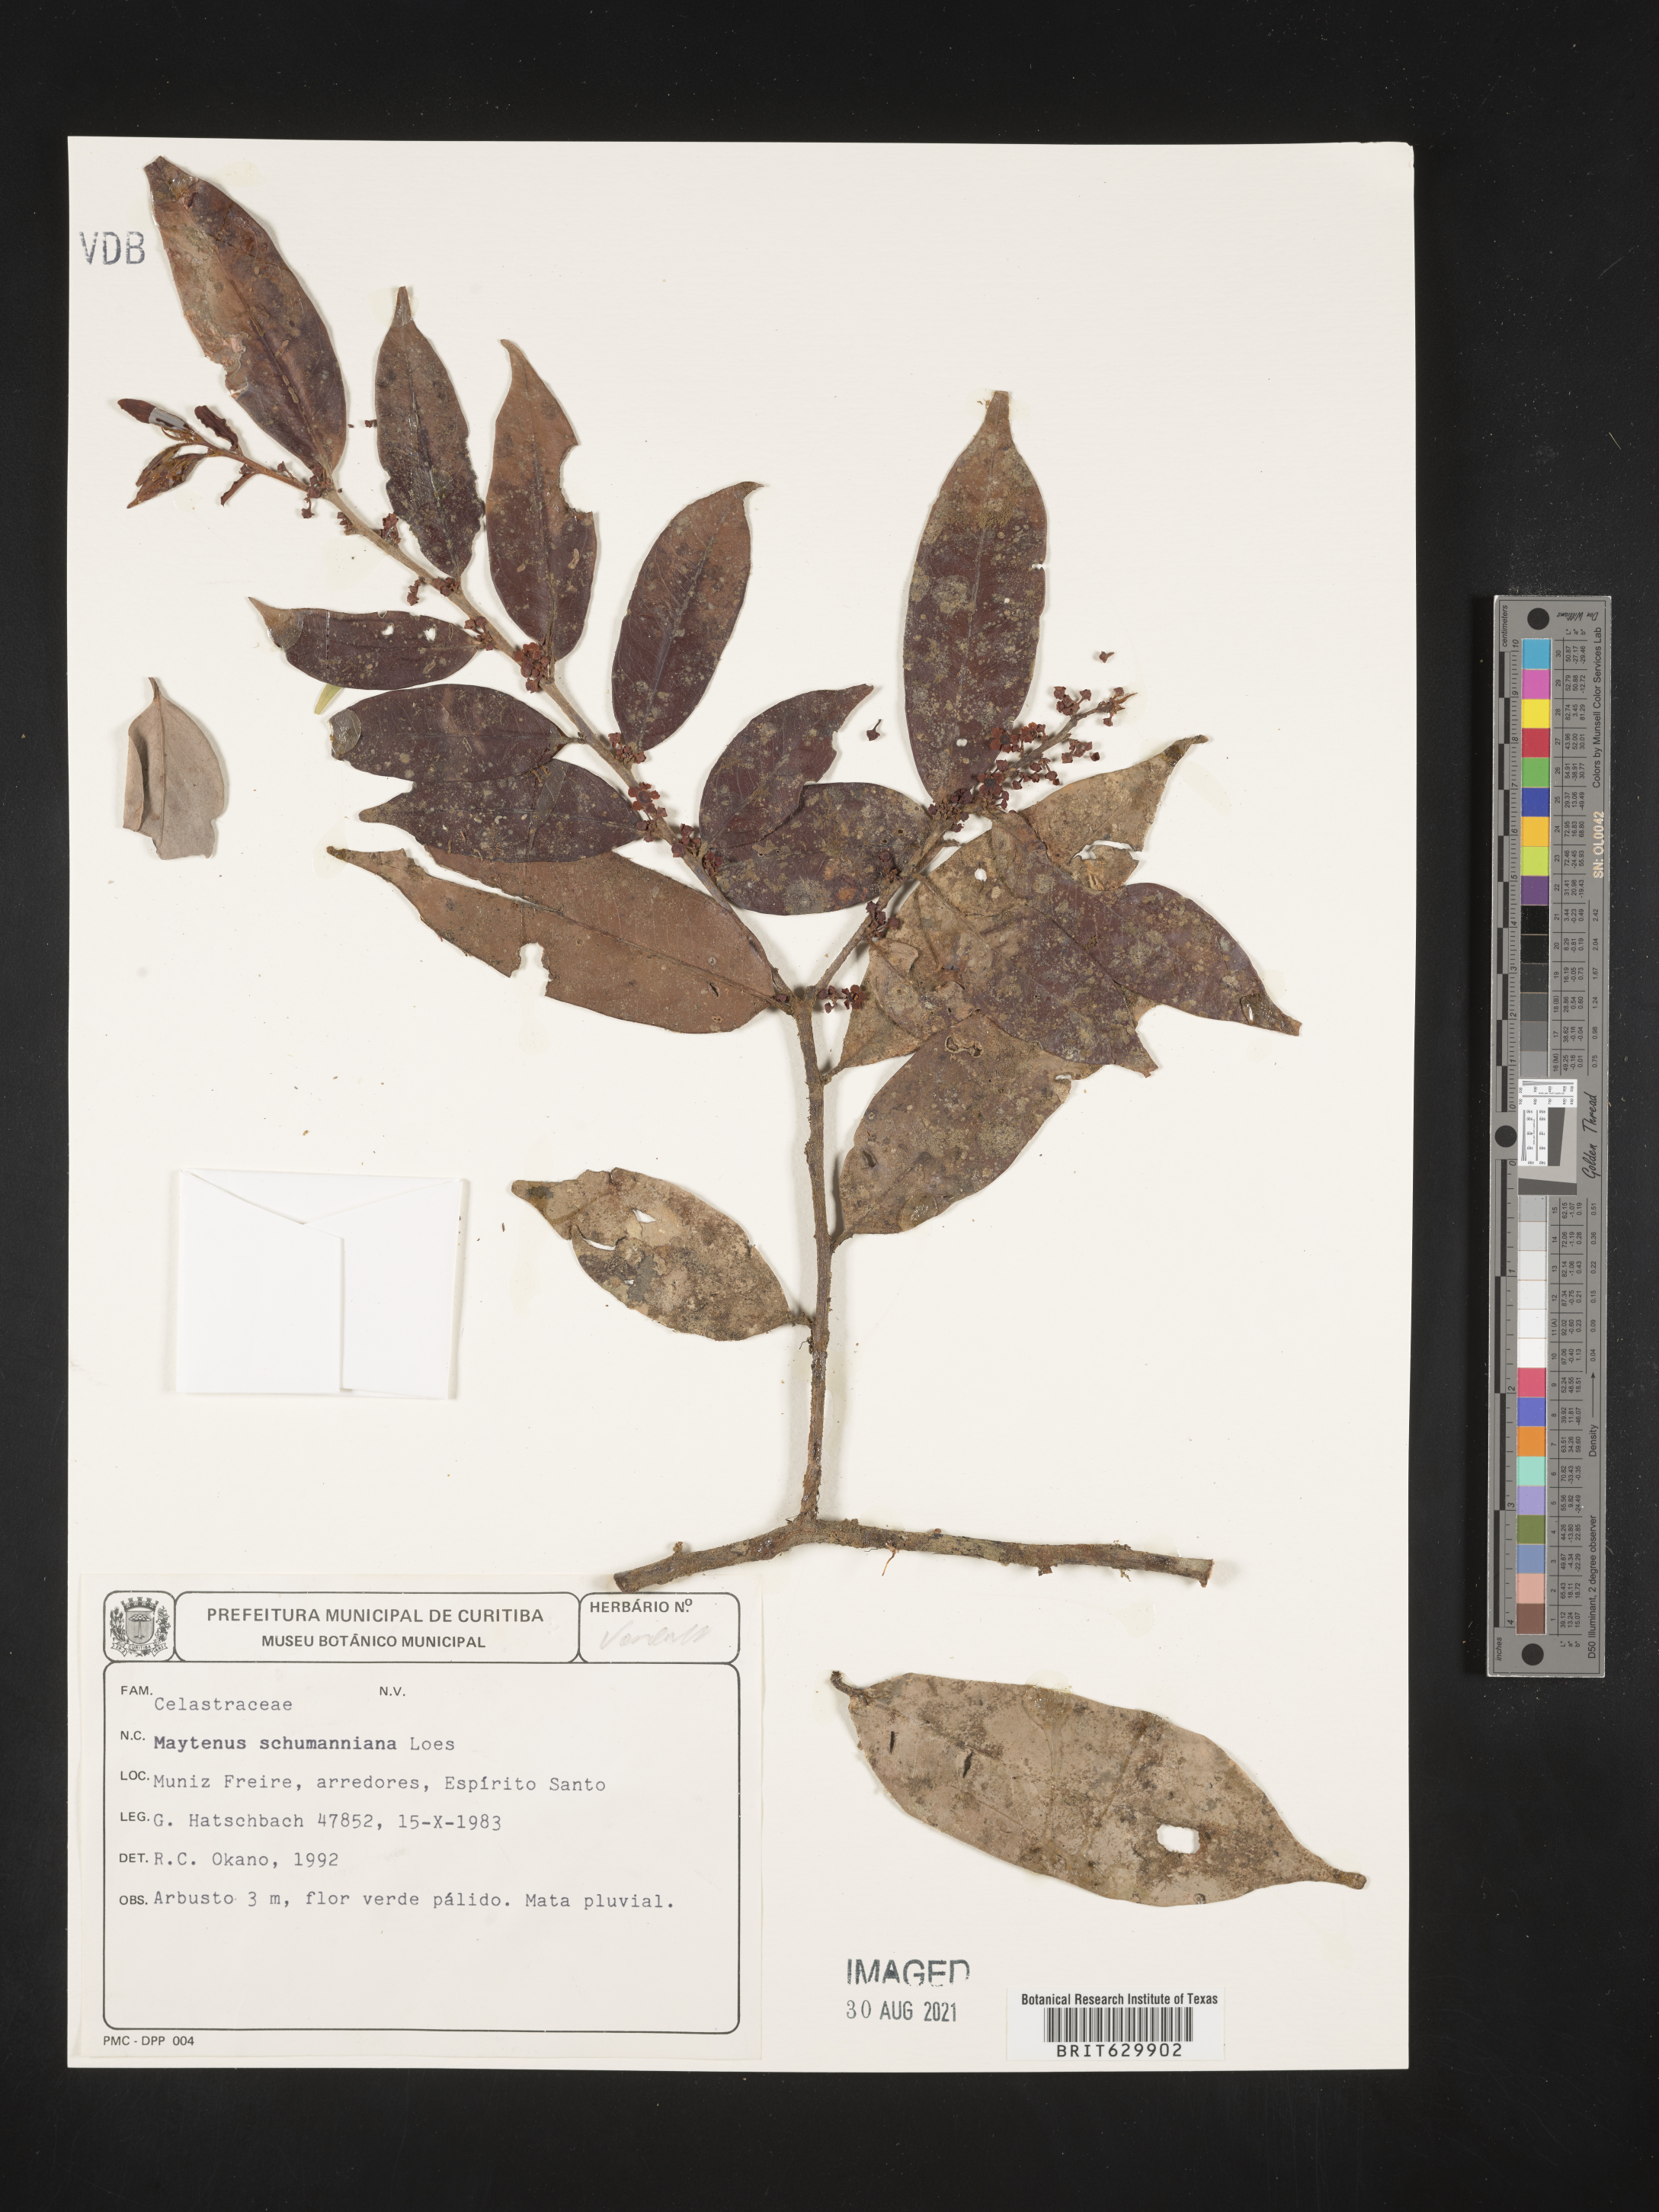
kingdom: Plantae
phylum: Tracheophyta
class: Magnoliopsida
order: Celastrales
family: Celastraceae
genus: Monteverdia
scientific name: Monteverdia schumanniana
